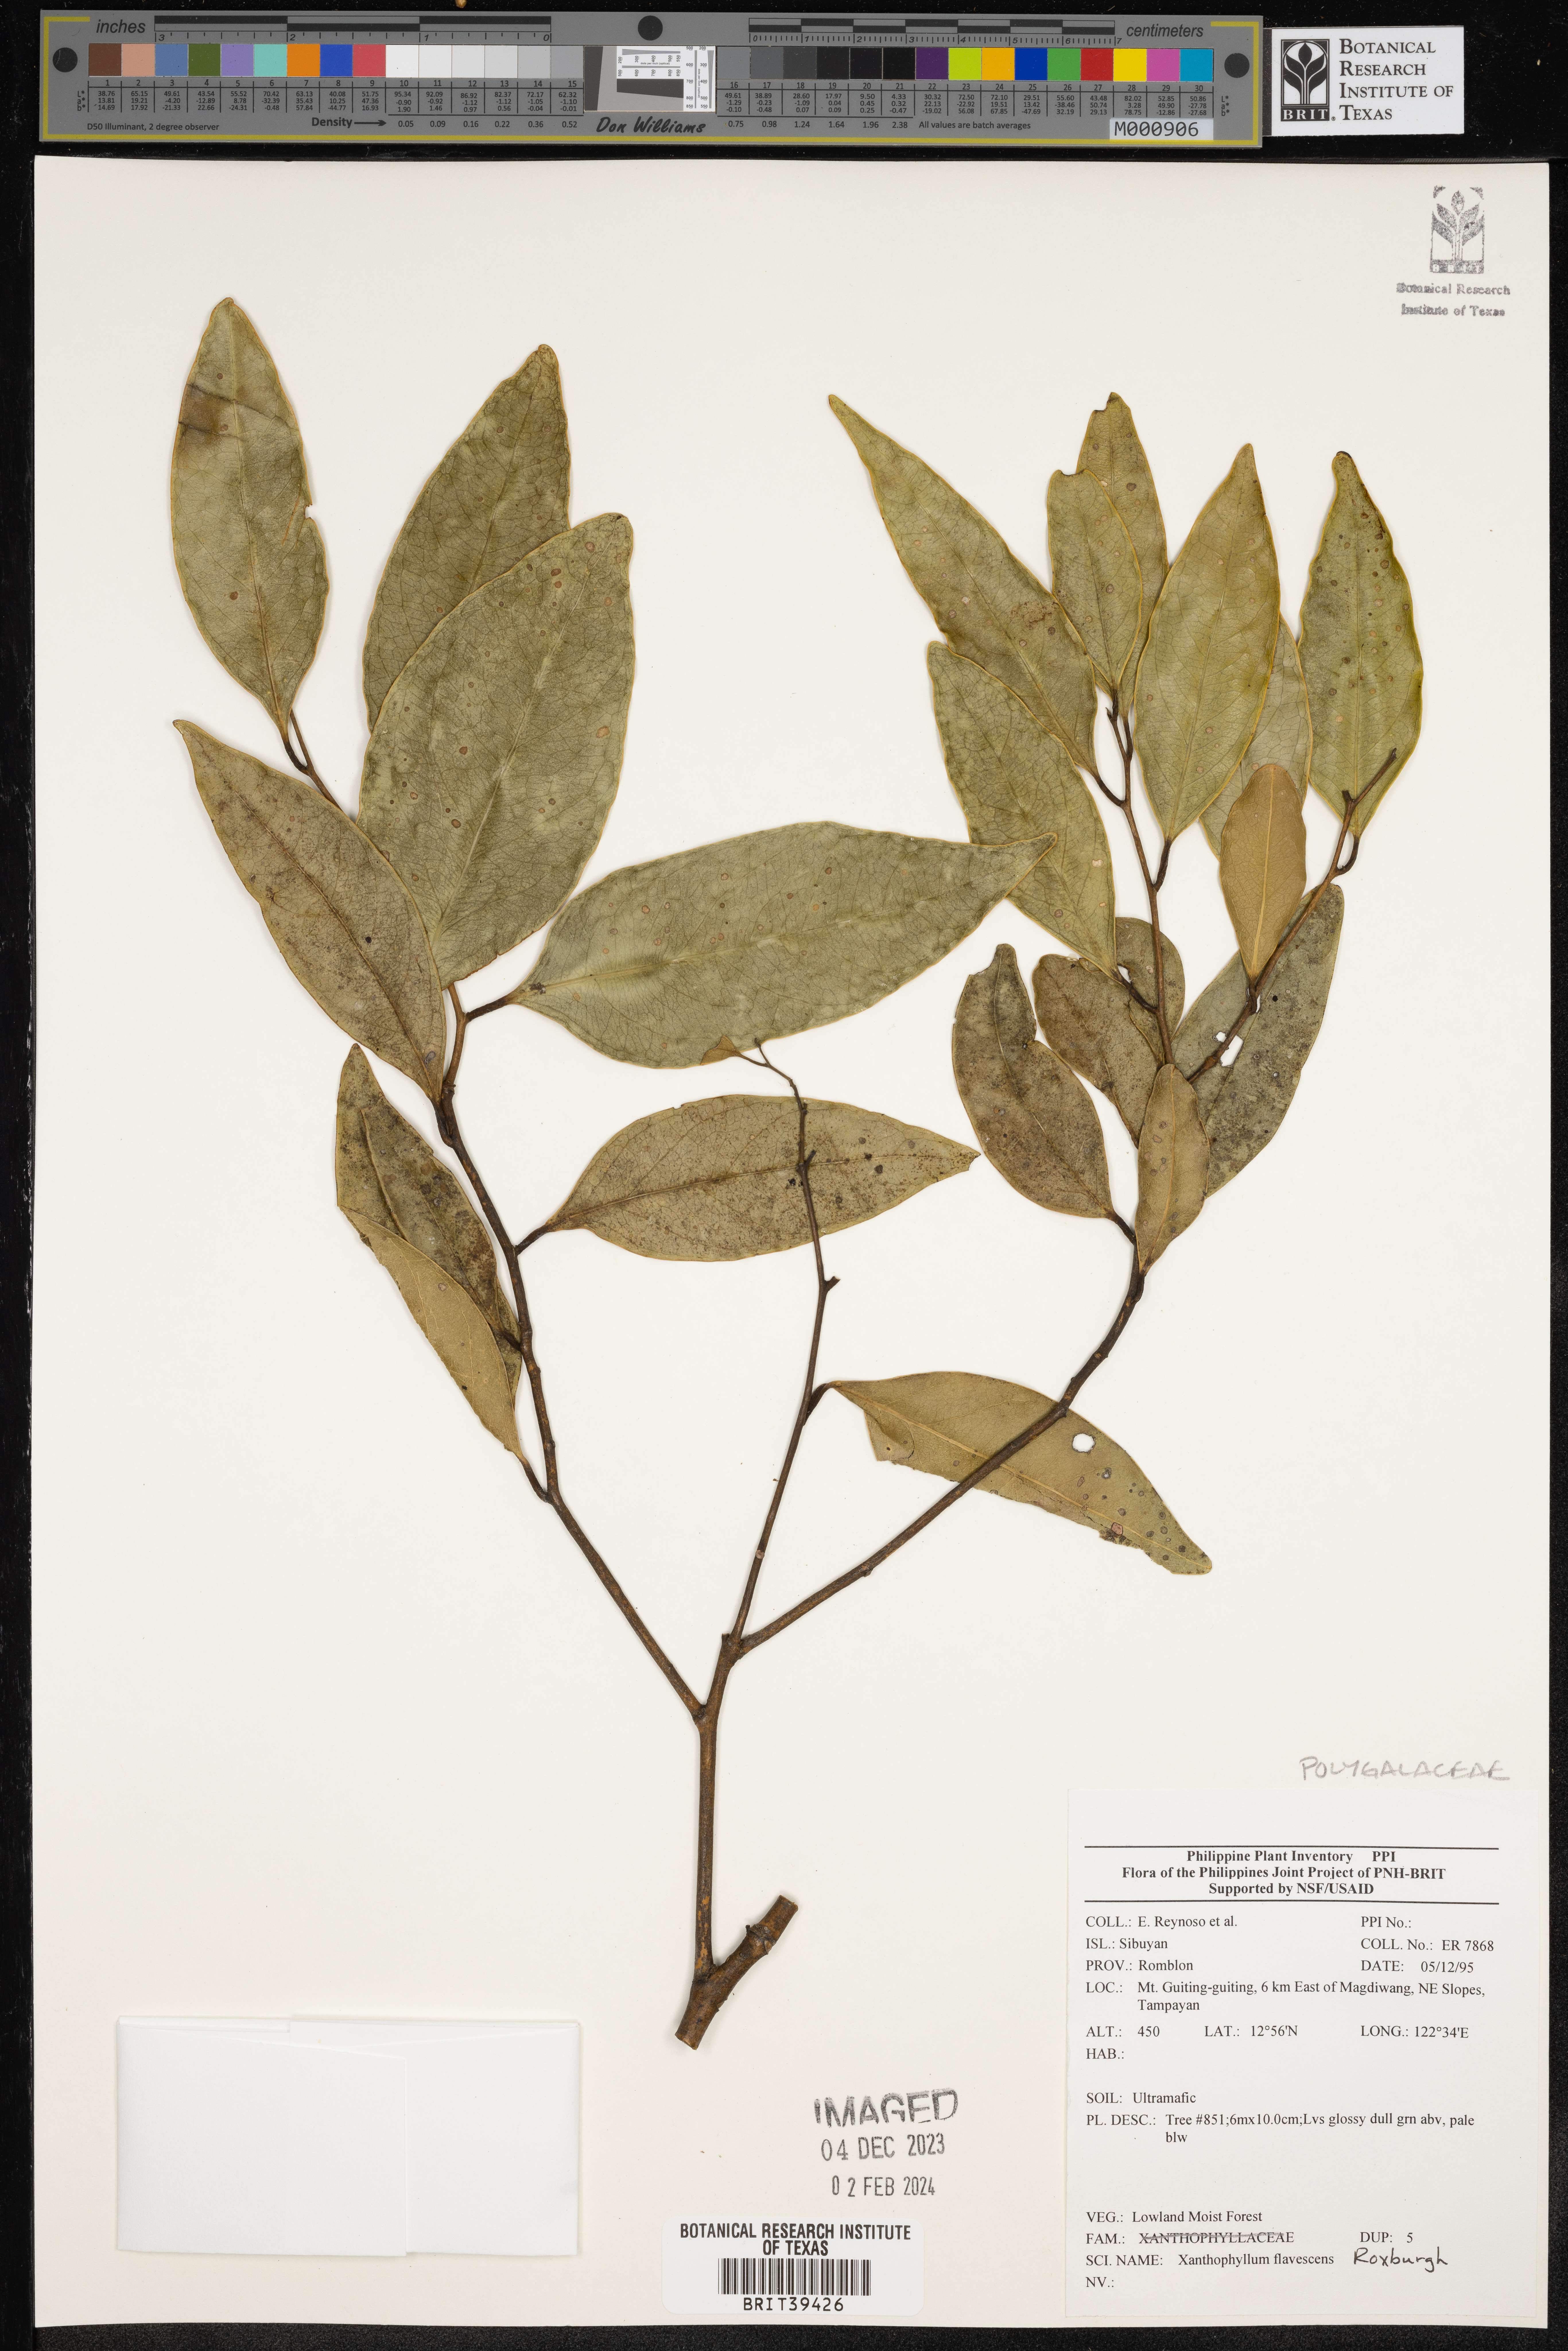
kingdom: Plantae
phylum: Tracheophyta
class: Magnoliopsida
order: Fabales
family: Polygalaceae
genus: Xanthophyllum
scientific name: Xanthophyllum flavescens
